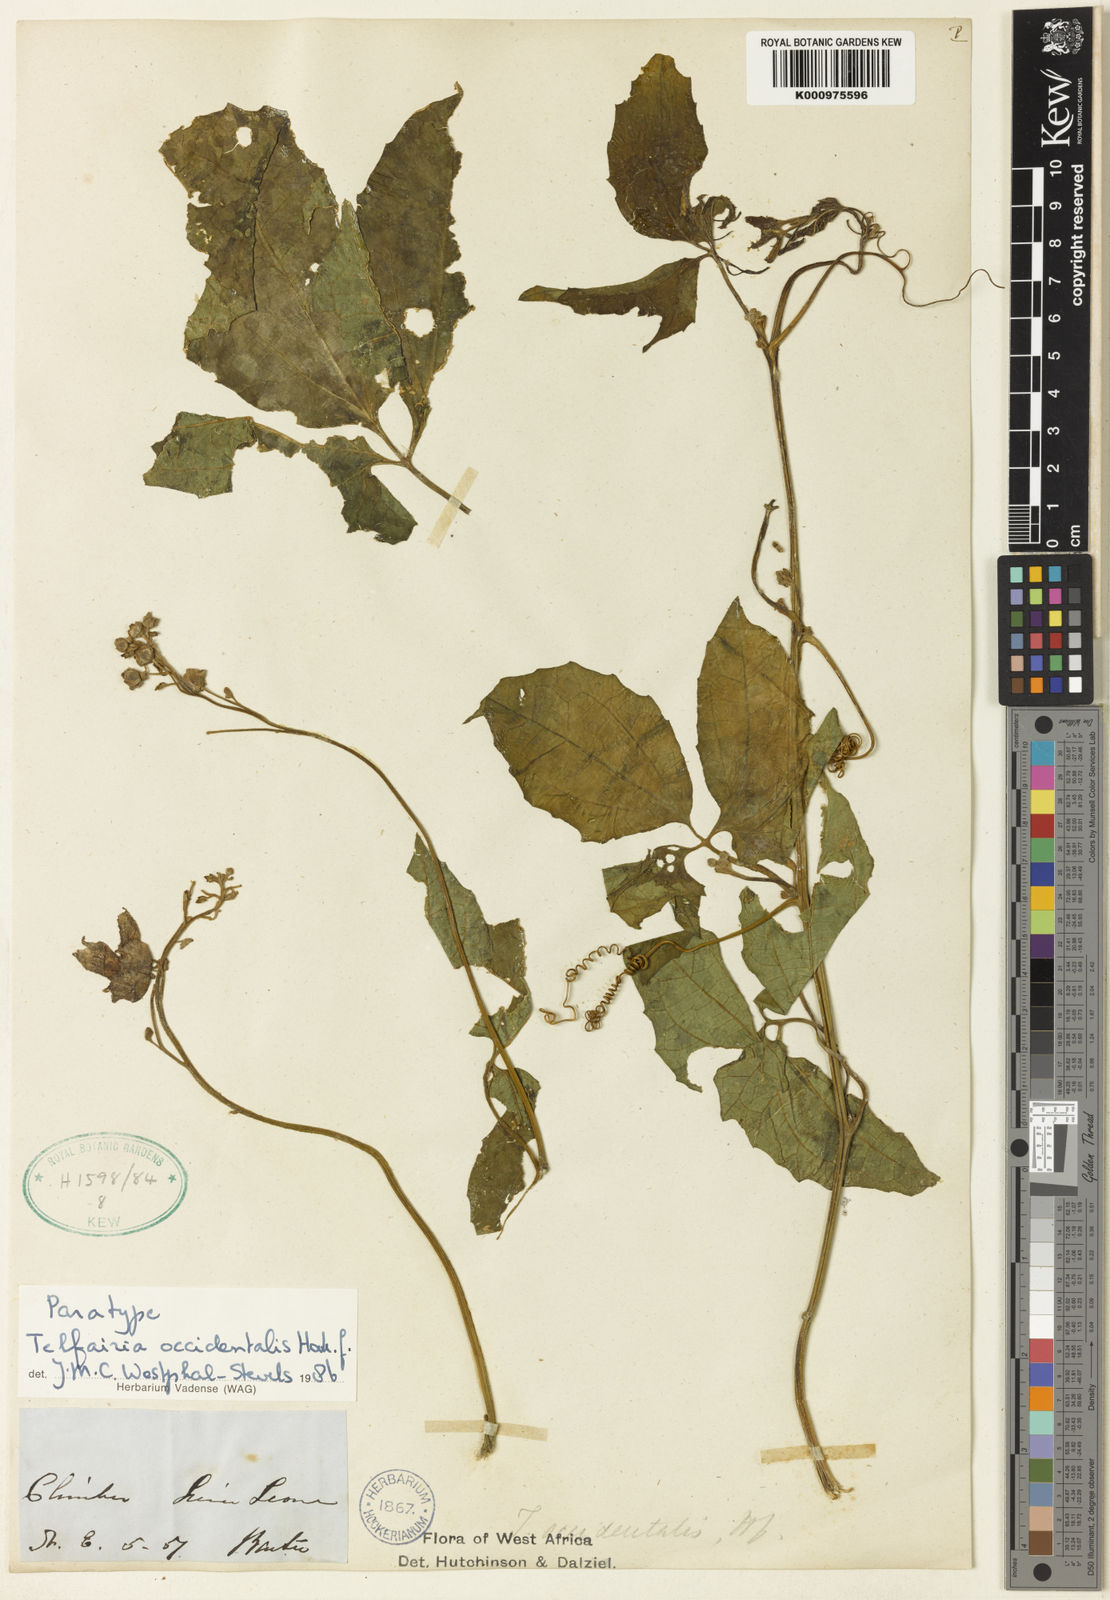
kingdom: Plantae
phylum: Tracheophyta
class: Magnoliopsida
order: Cucurbitales
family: Cucurbitaceae
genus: Telfairia
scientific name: Telfairia occidentalis
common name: Oysternut
